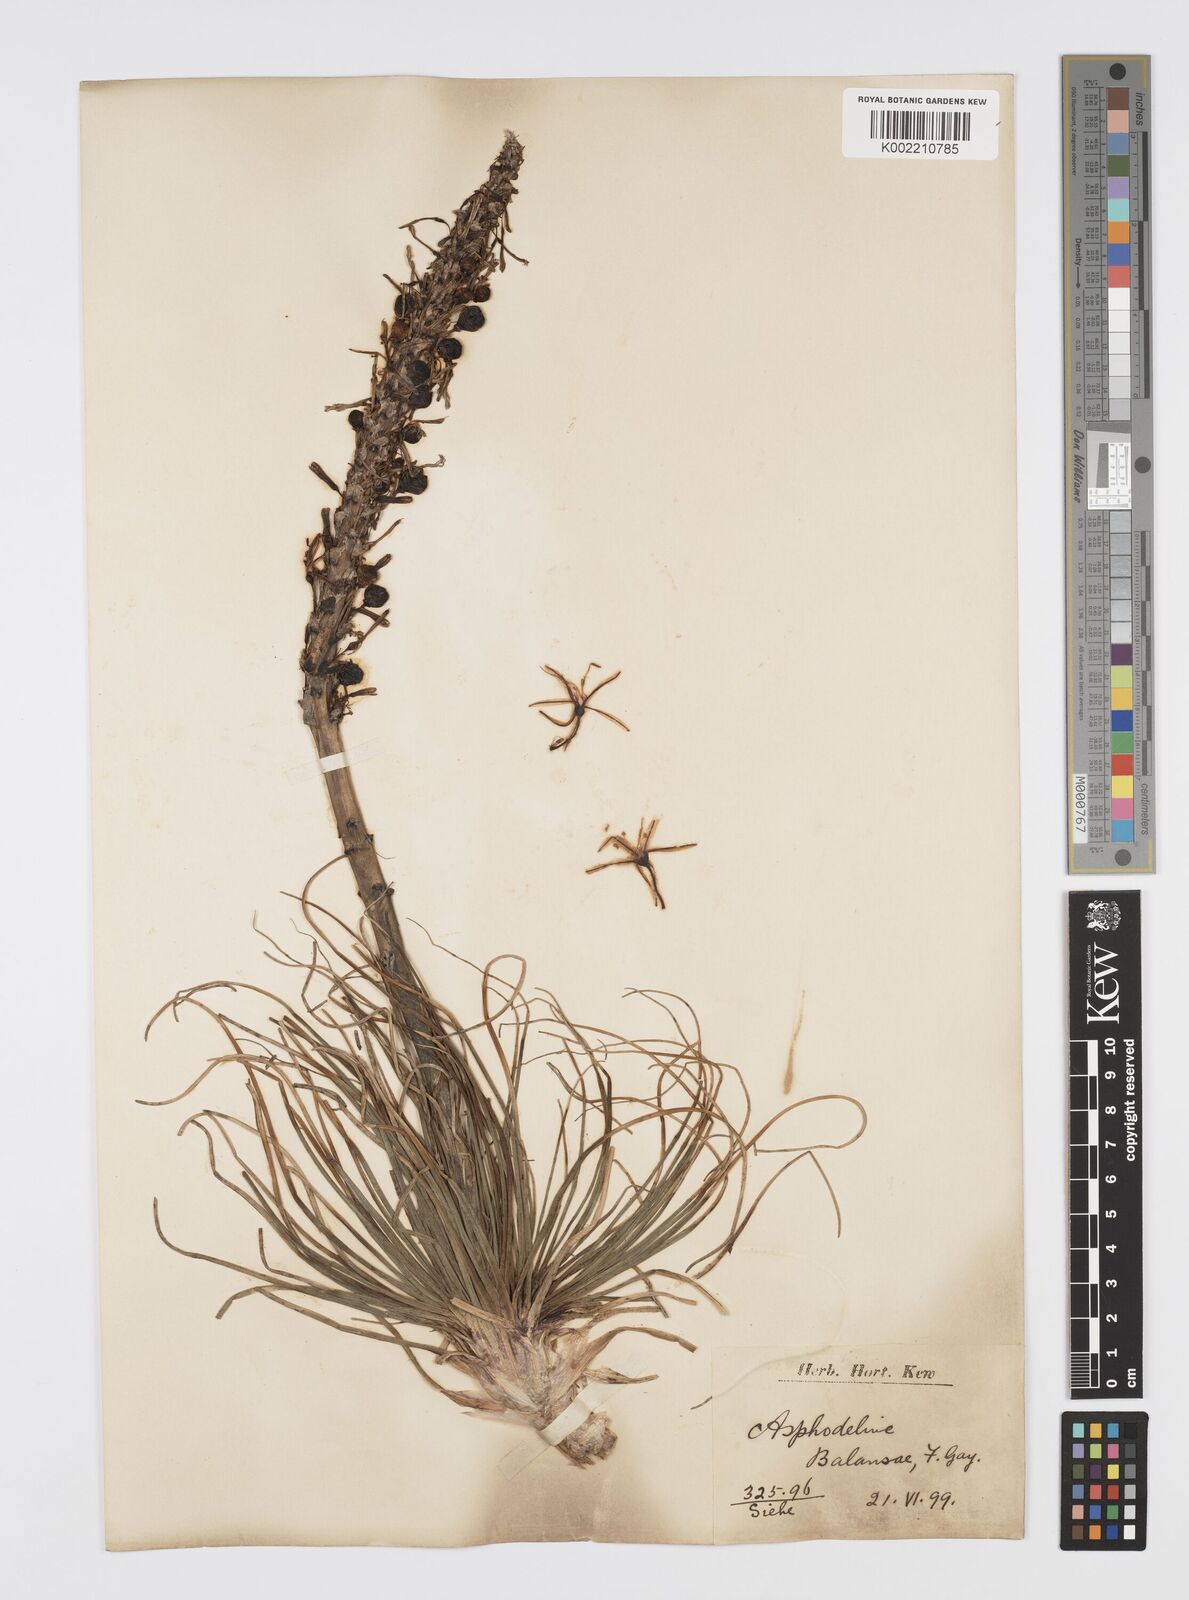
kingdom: Plantae
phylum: Tracheophyta
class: Liliopsida
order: Asparagales
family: Asphodelaceae
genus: Asphodeline
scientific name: Asphodeline damascena
